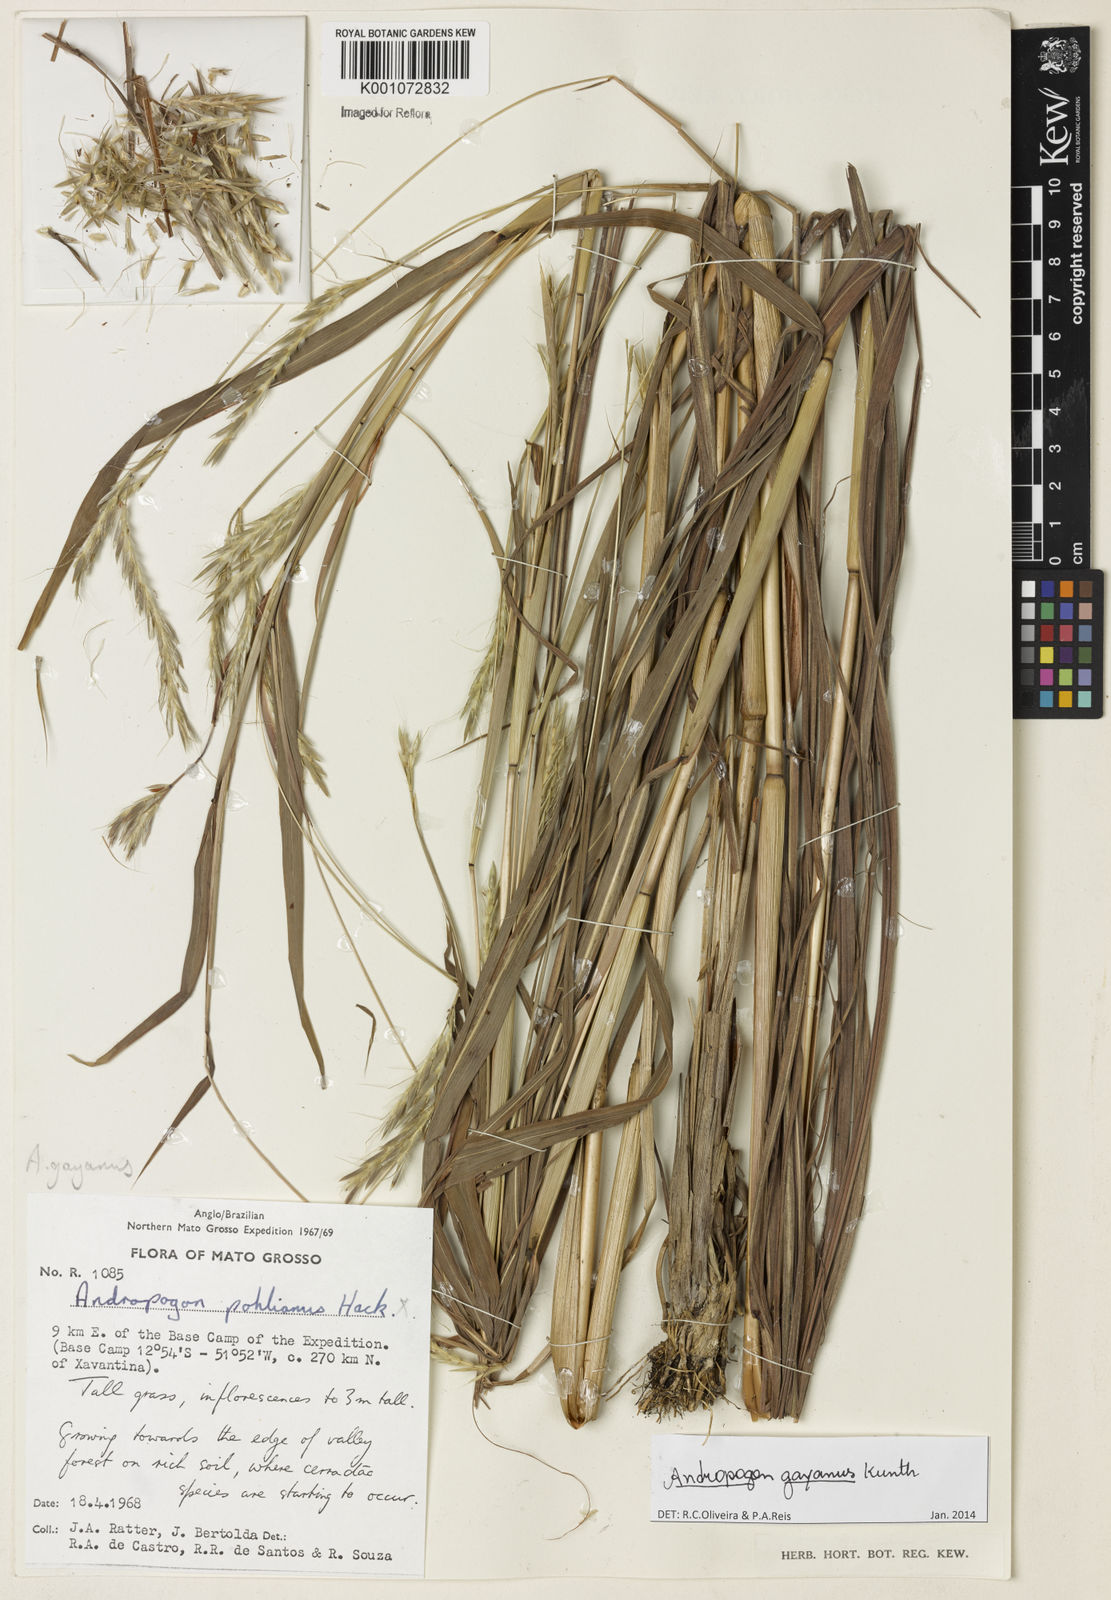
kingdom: Plantae
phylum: Tracheophyta
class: Liliopsida
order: Poales
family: Poaceae
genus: Andropogon
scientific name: Andropogon gayanus
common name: Tambuki grass
